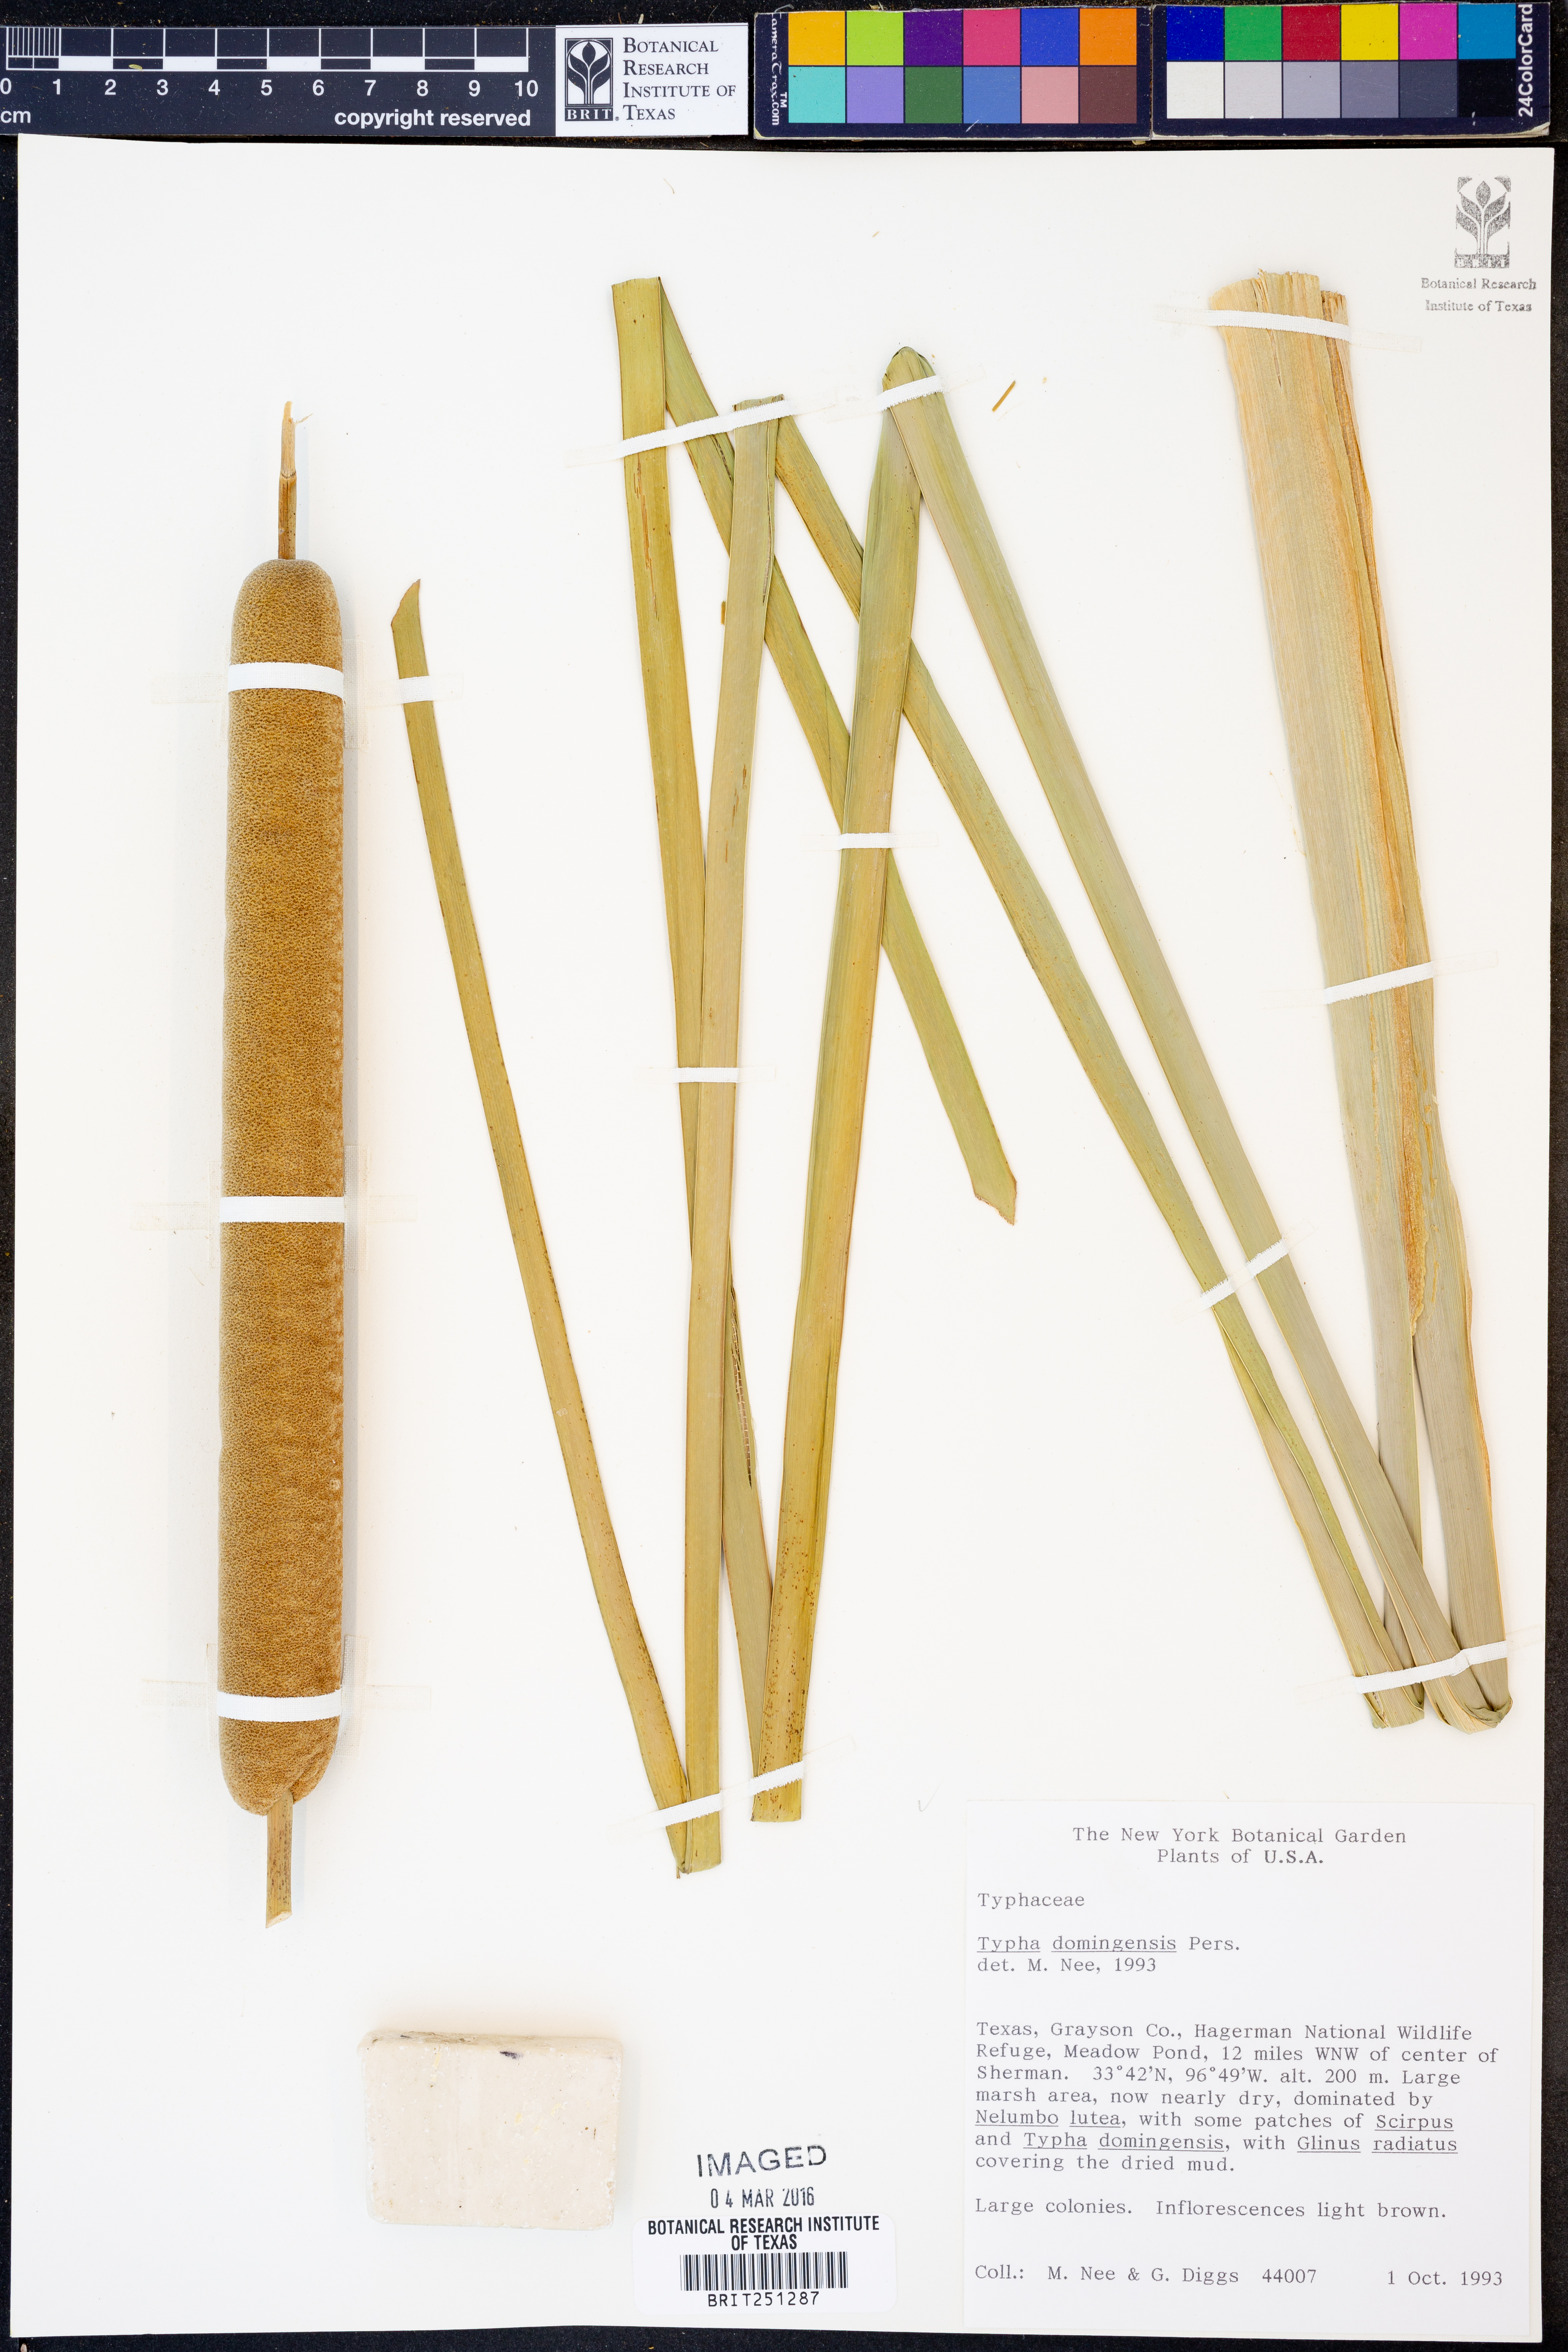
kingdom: Plantae
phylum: Tracheophyta
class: Liliopsida
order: Poales
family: Typhaceae
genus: Typha
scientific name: Typha domingensis
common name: Southern cattail
